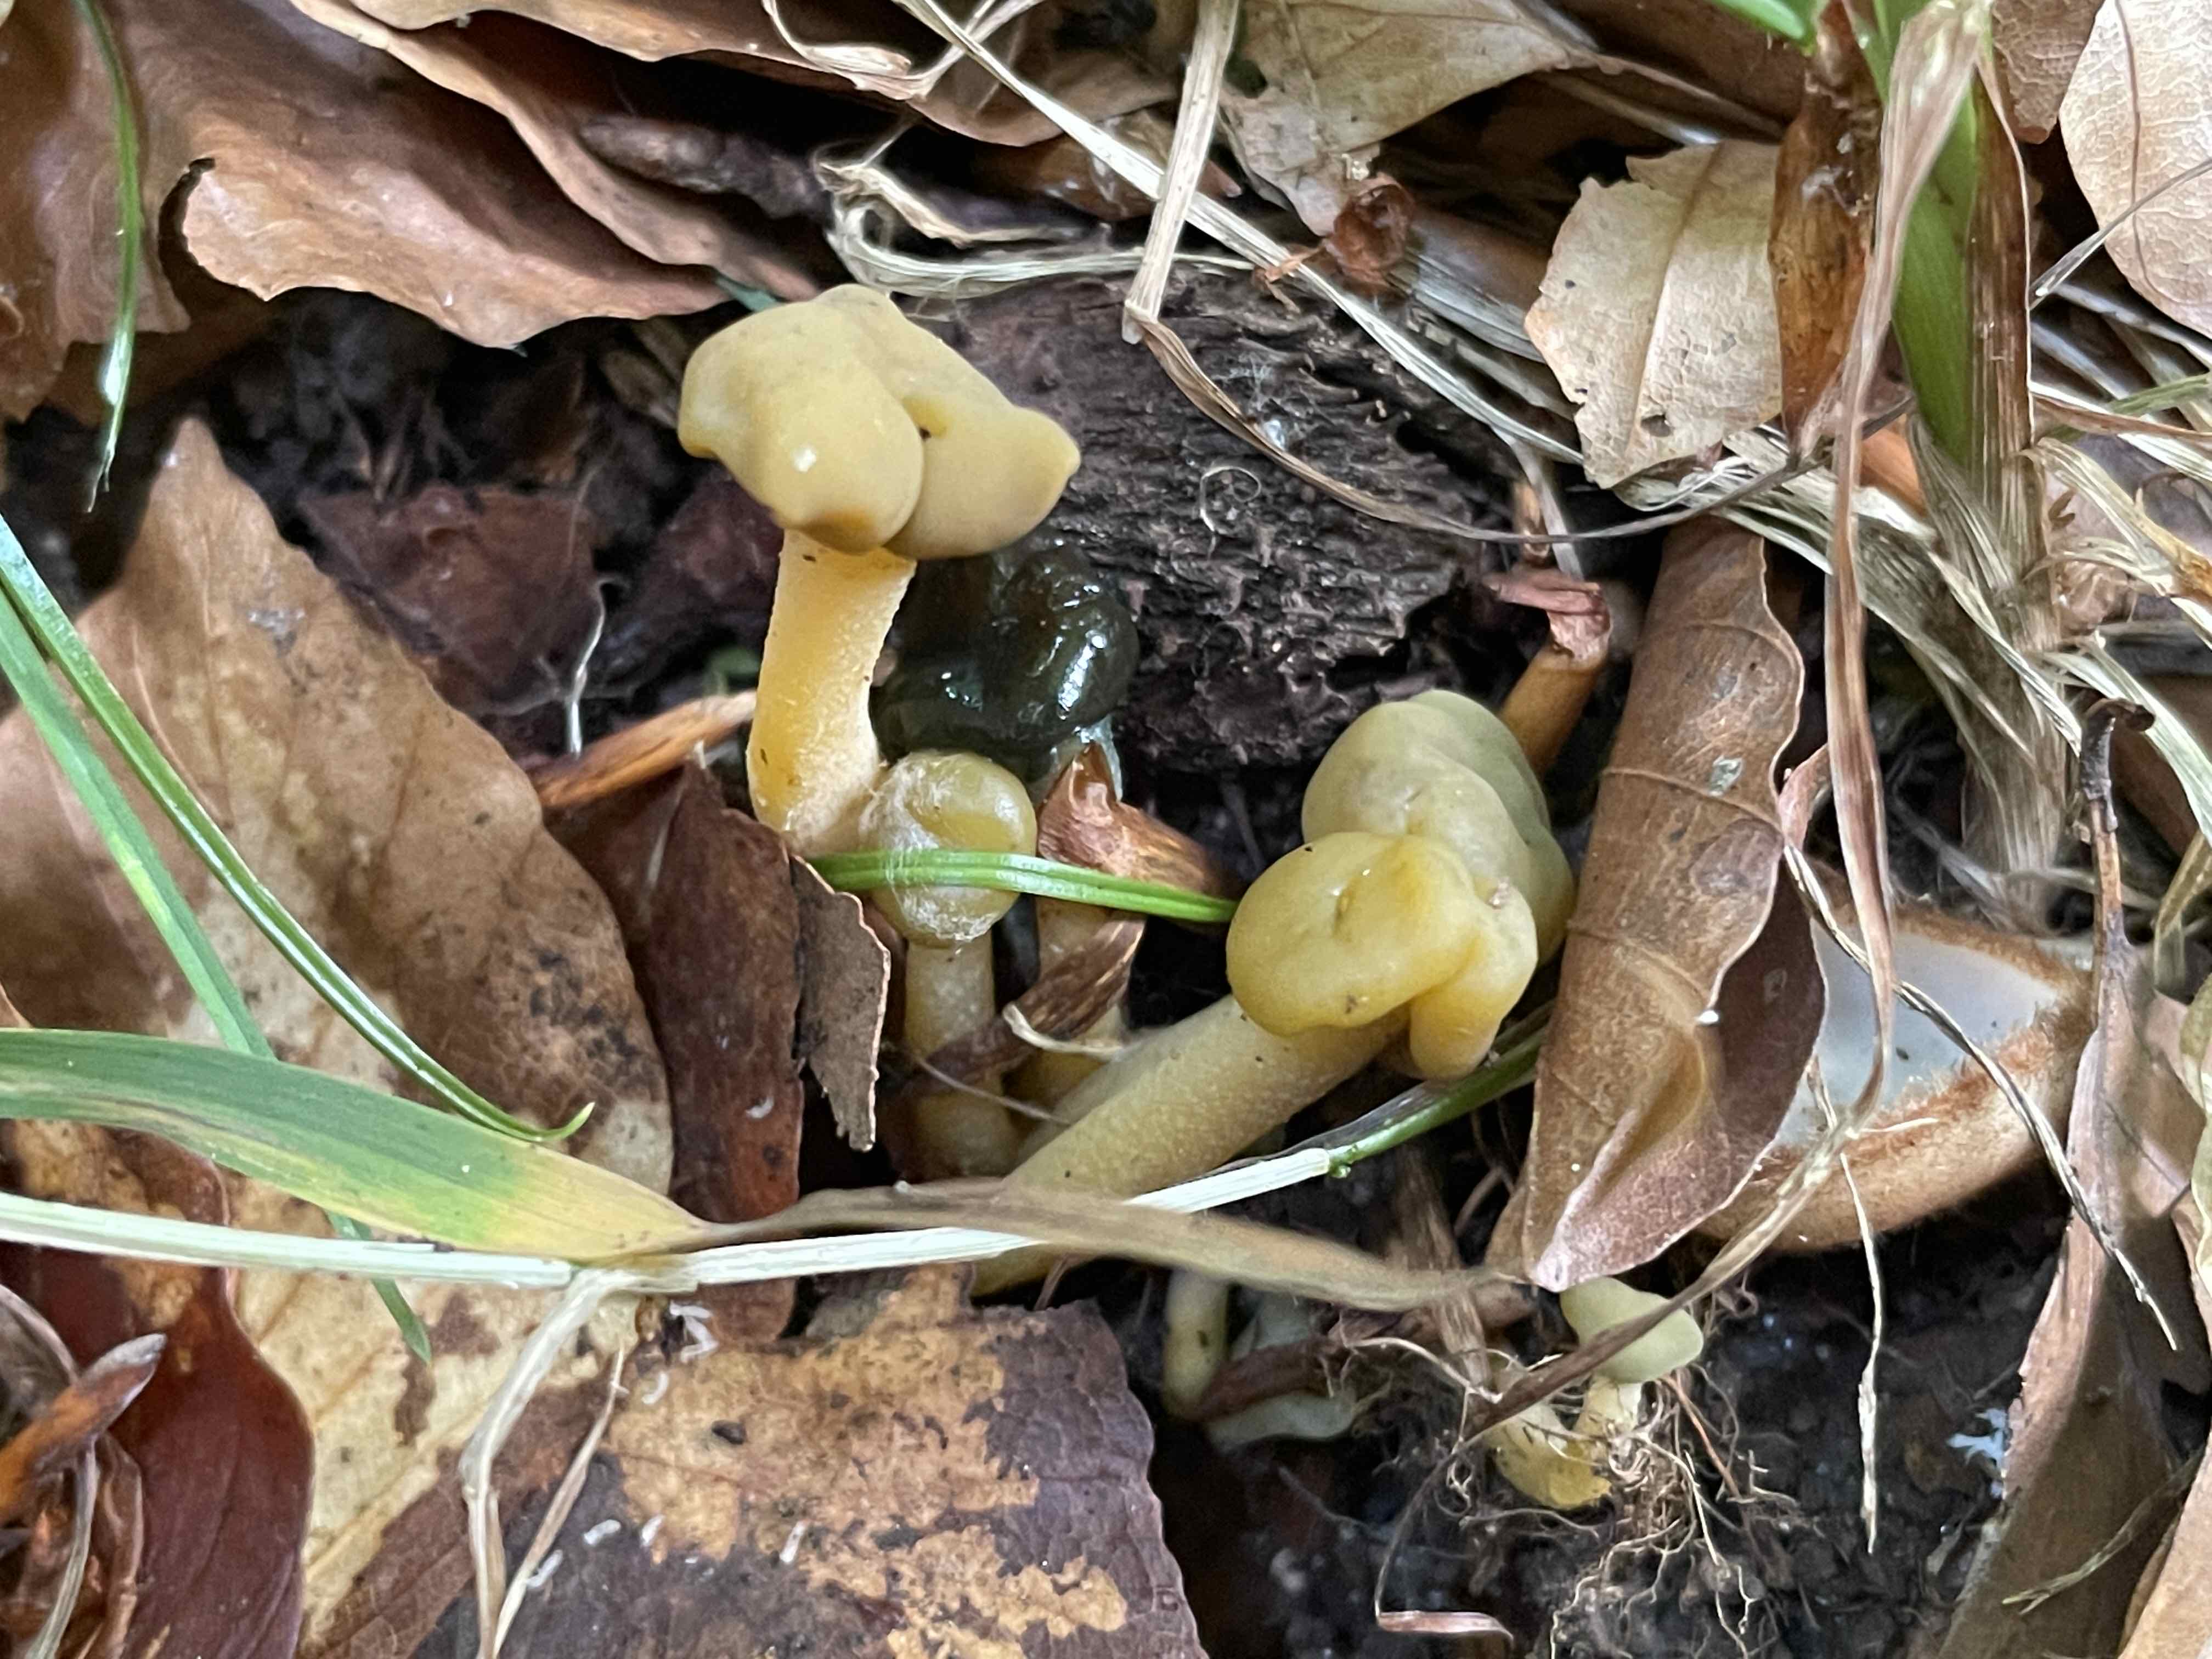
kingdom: Fungi
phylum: Ascomycota
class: Leotiomycetes
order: Leotiales
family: Leotiaceae
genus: Leotia
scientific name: Leotia lubrica
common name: ravsvamp
